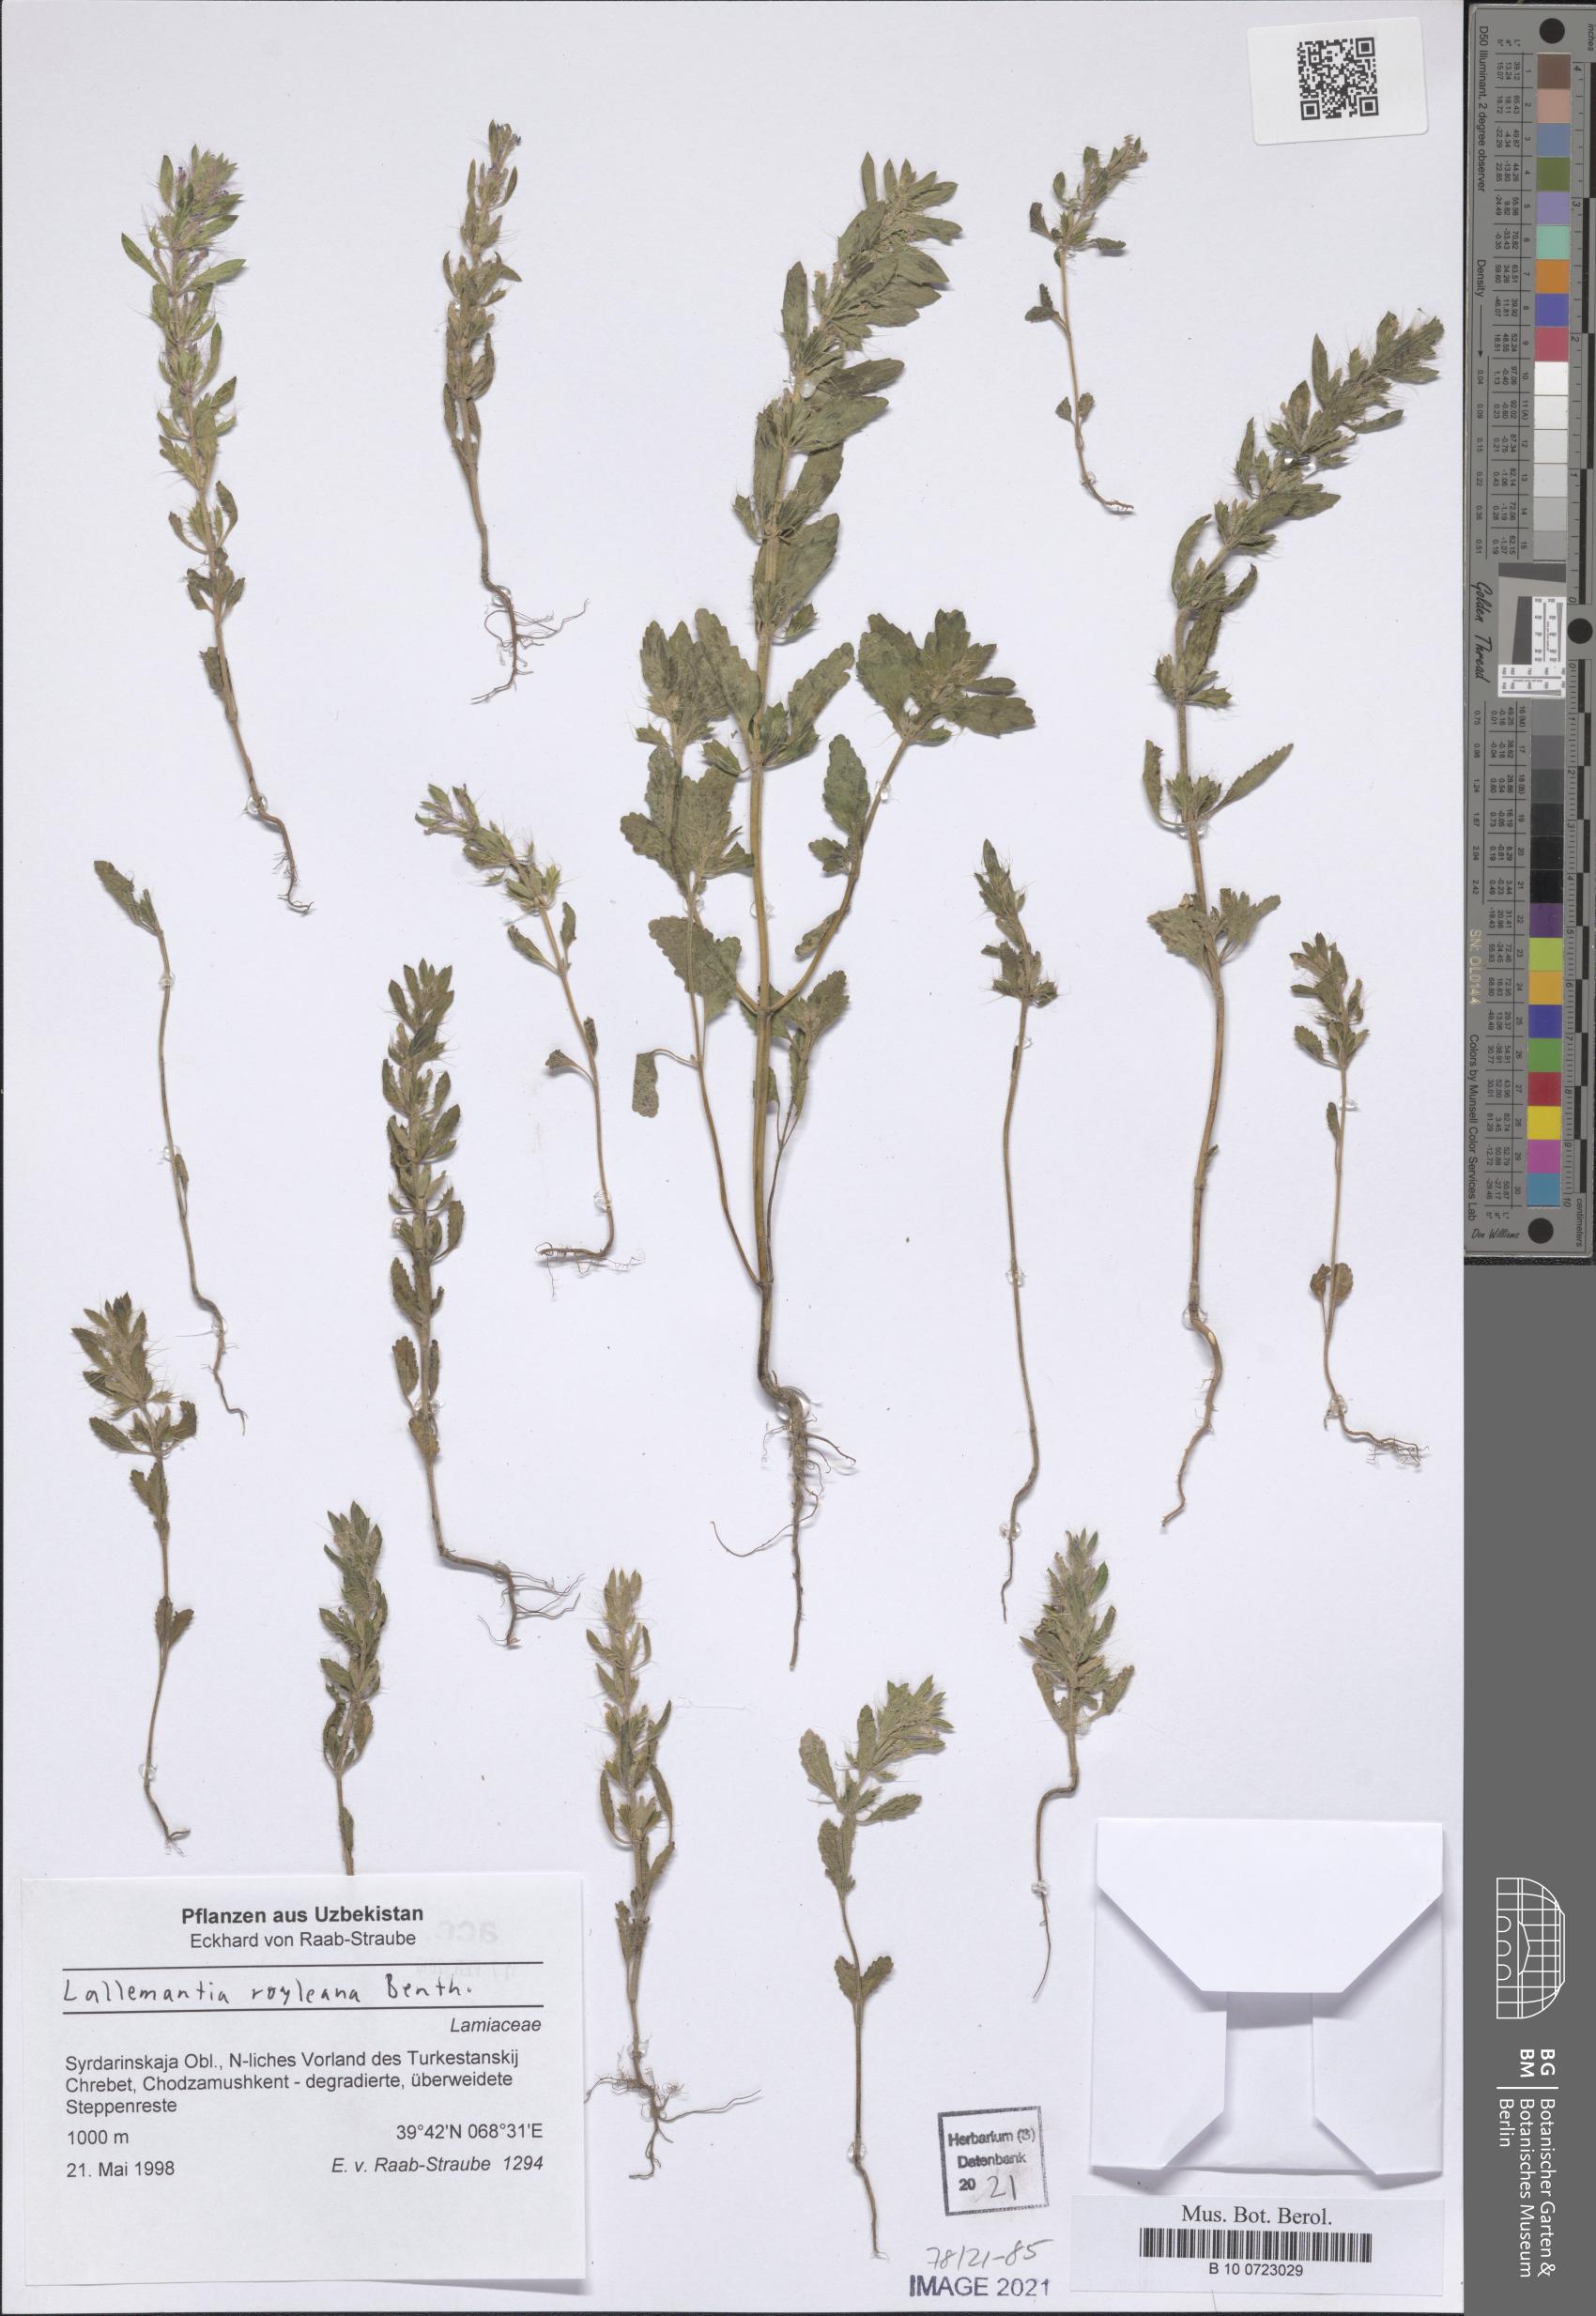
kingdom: Plantae
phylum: Tracheophyta
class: Magnoliopsida
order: Lamiales
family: Lamiaceae
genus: Lallemantia
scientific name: Lallemantia royleana
